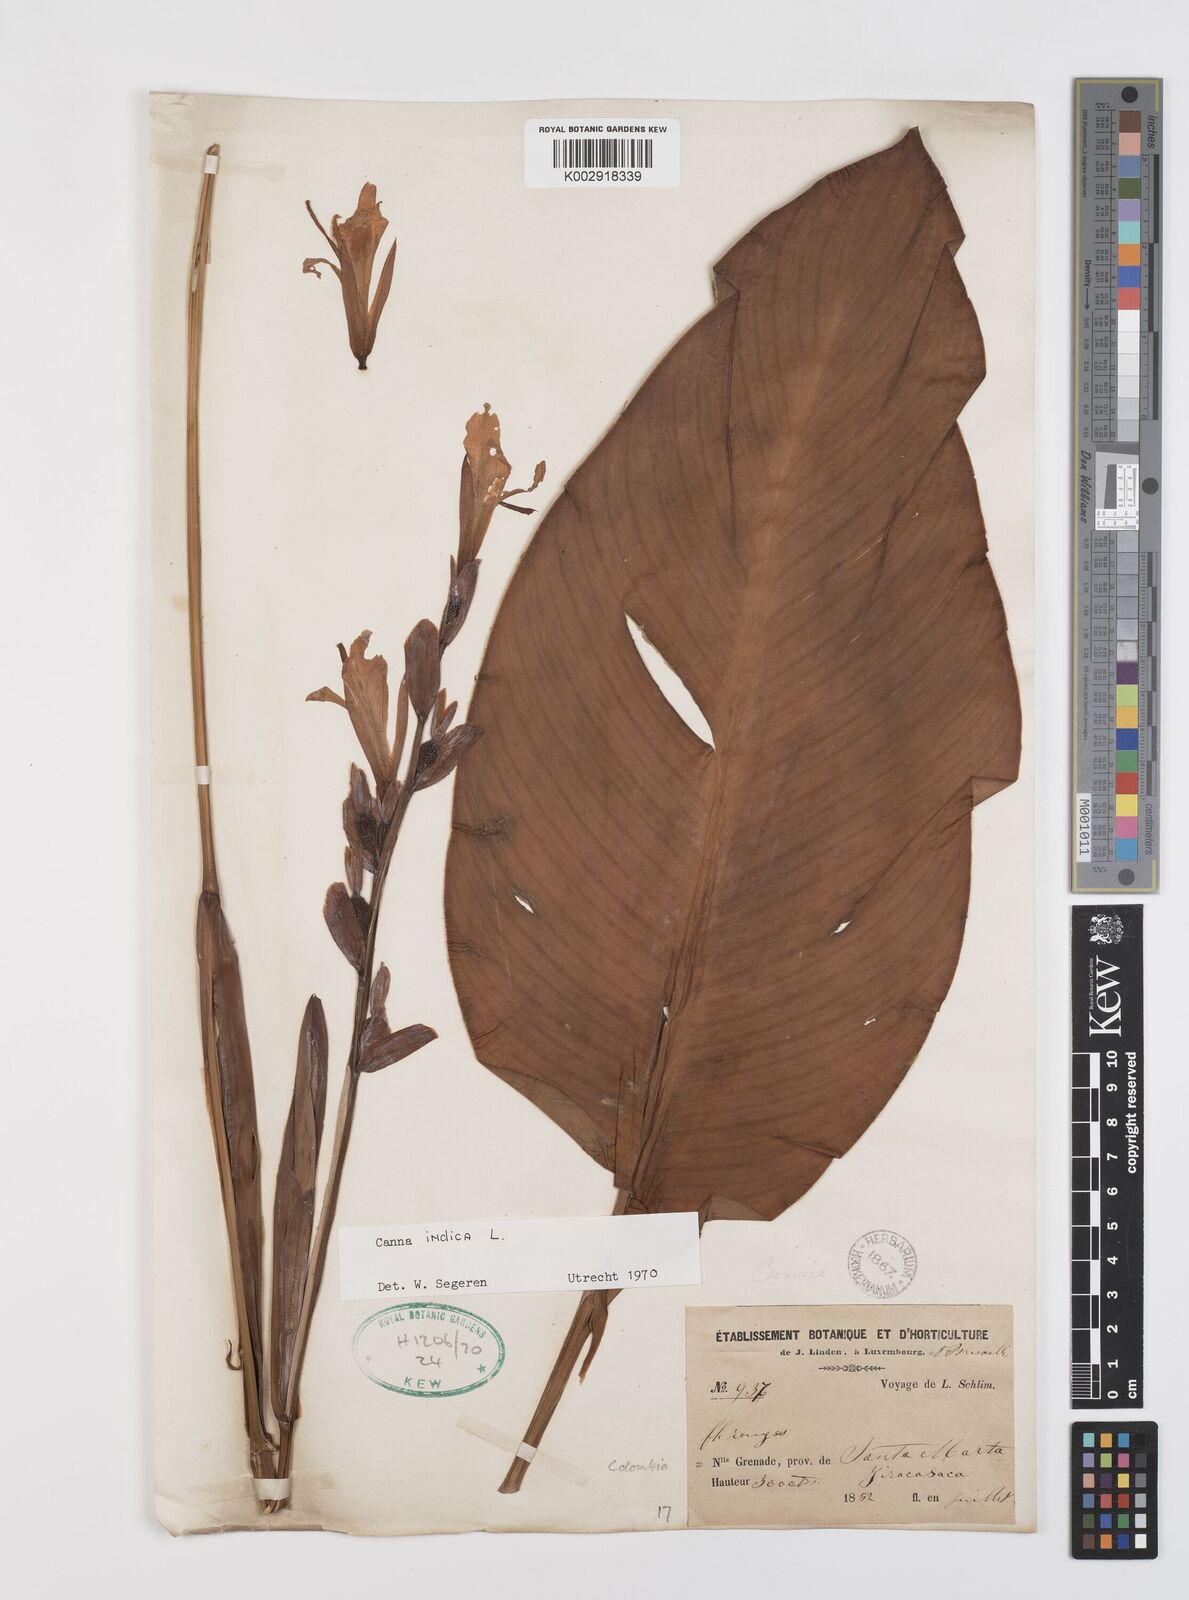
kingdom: Plantae
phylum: Tracheophyta
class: Liliopsida
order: Zingiberales
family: Cannaceae
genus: Canna
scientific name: Canna indica
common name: Indian shot
